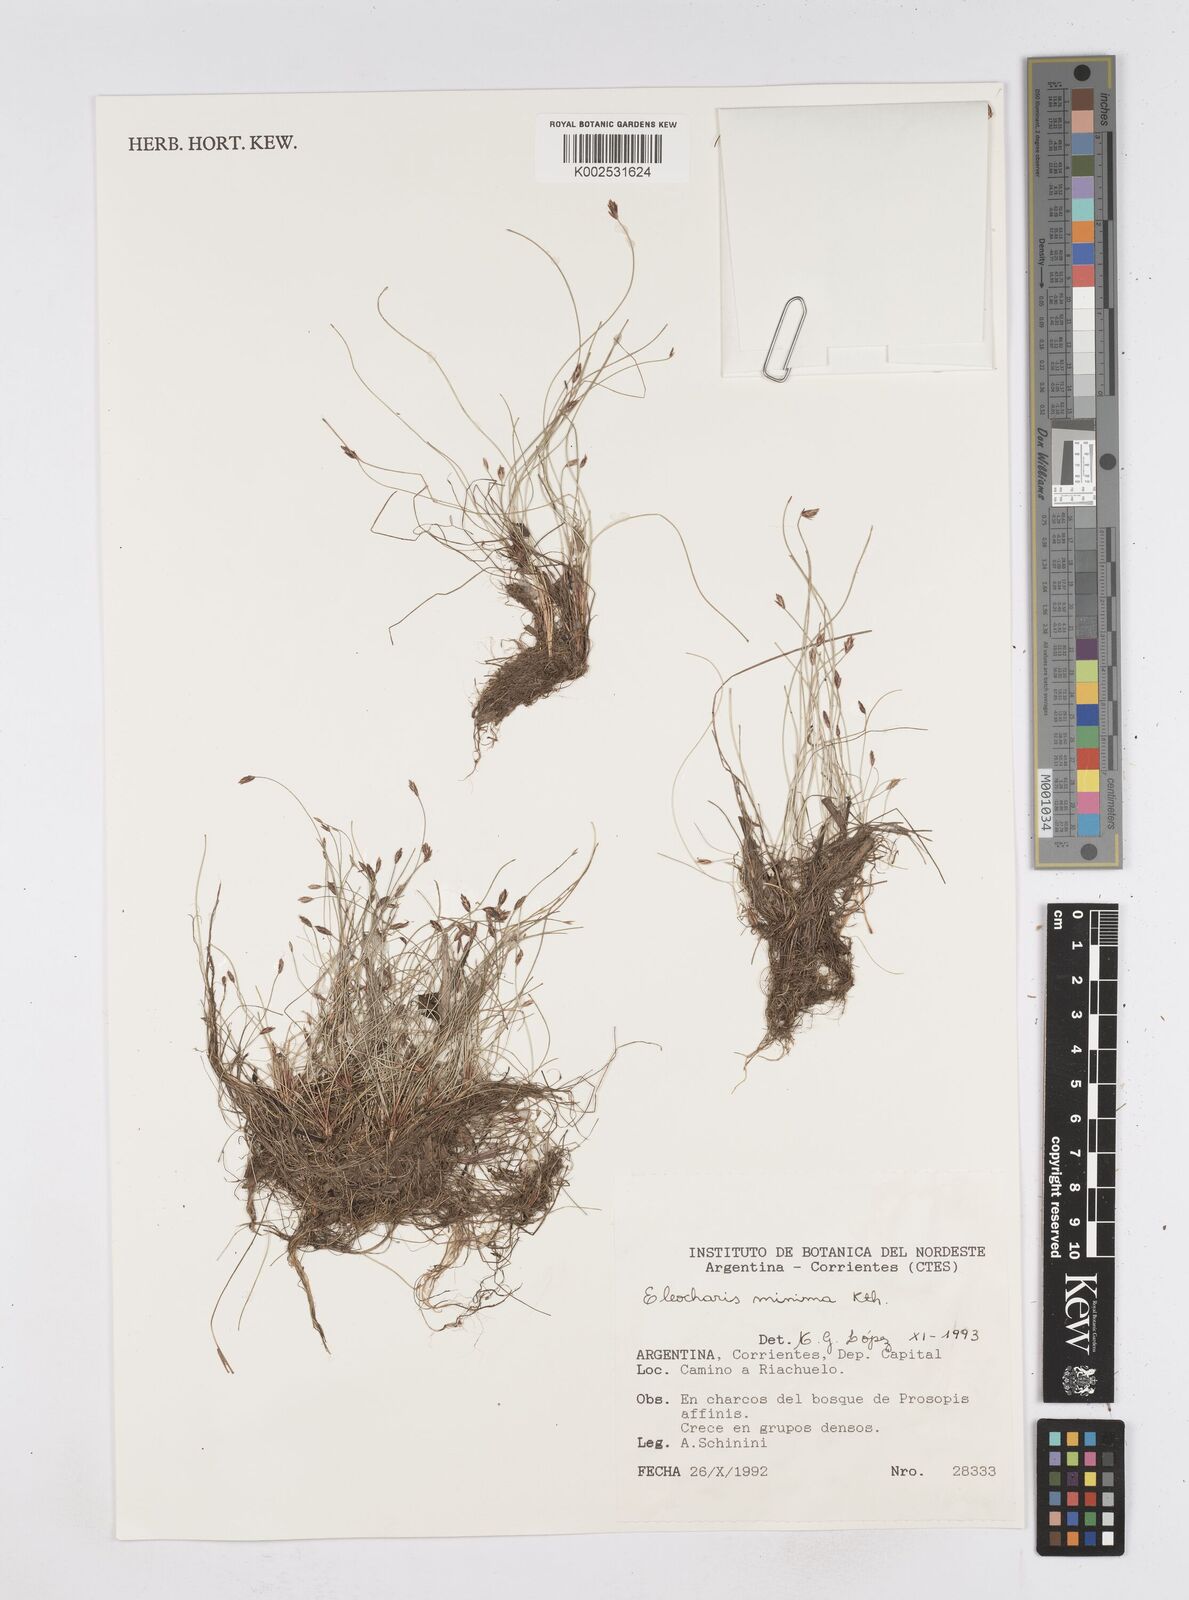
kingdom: Plantae
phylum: Tracheophyta
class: Liliopsida
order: Poales
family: Cyperaceae
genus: Eleocharis
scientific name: Eleocharis minima
